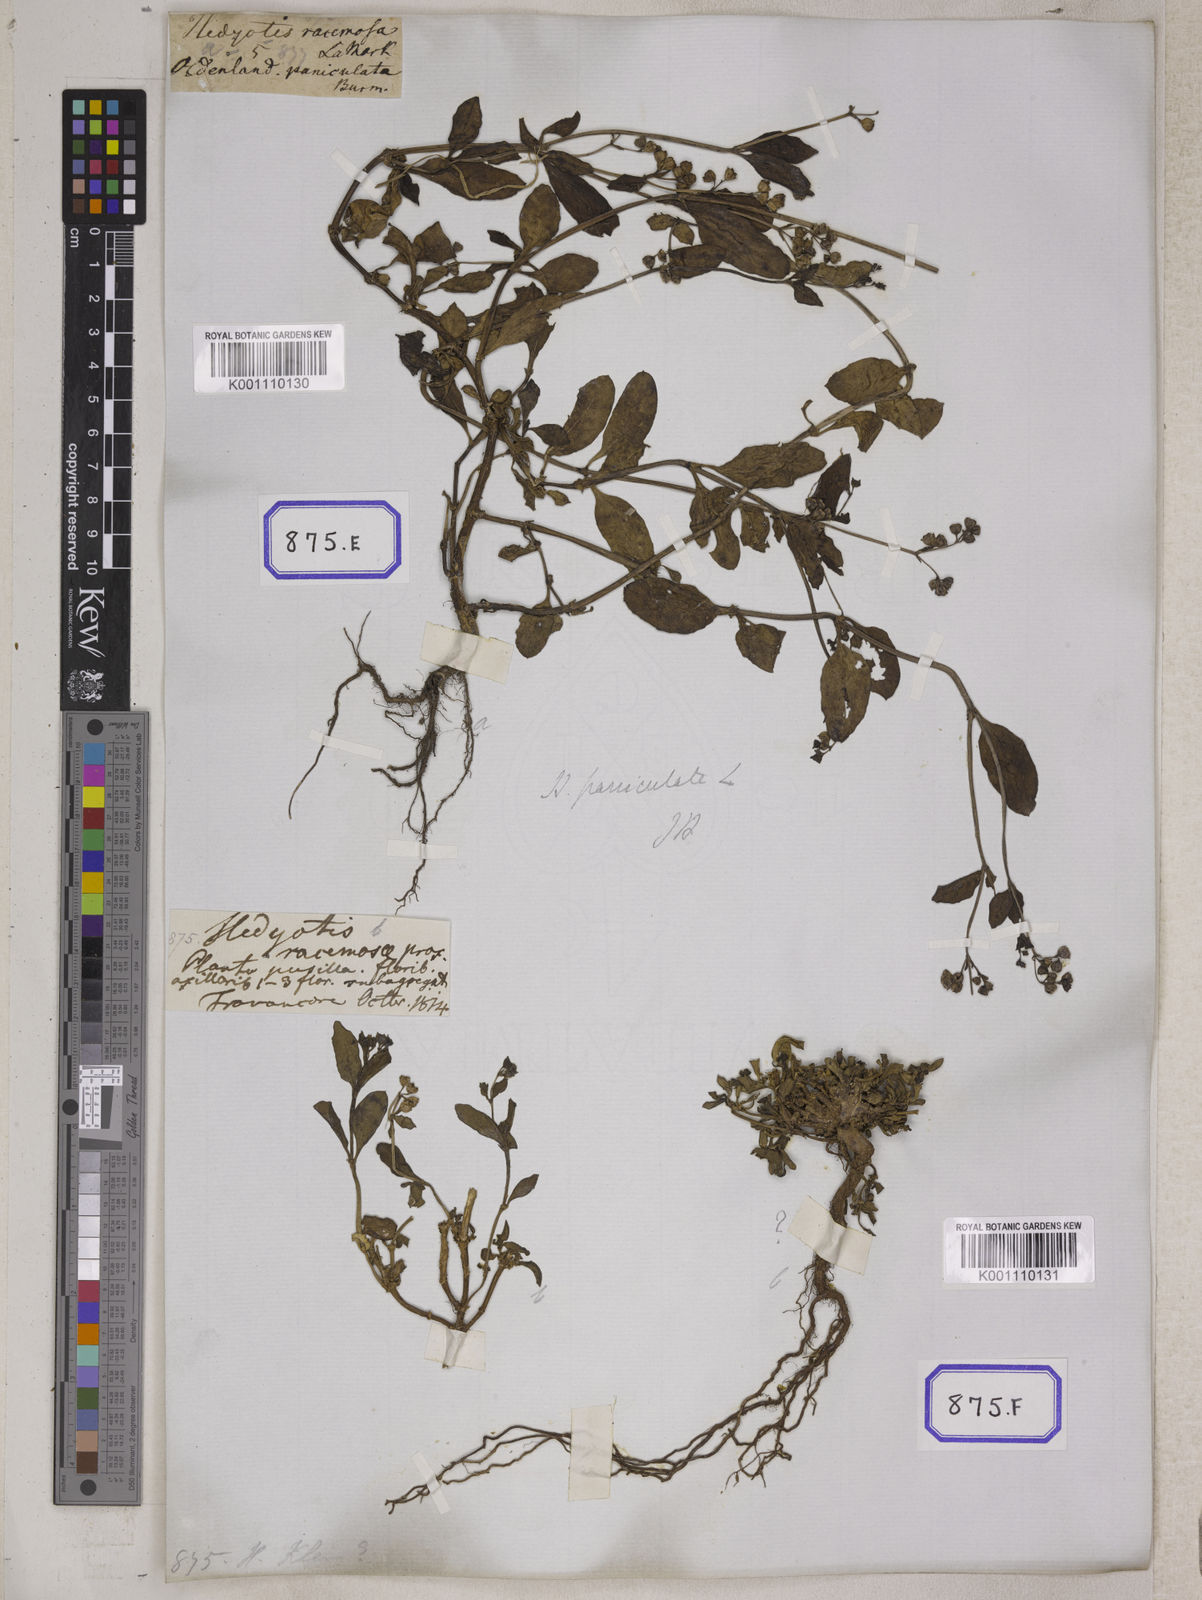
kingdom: Plantae
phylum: Tracheophyta
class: Magnoliopsida
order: Gentianales
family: Rubiaceae
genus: Leptopetalum
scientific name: Leptopetalum racemosum
